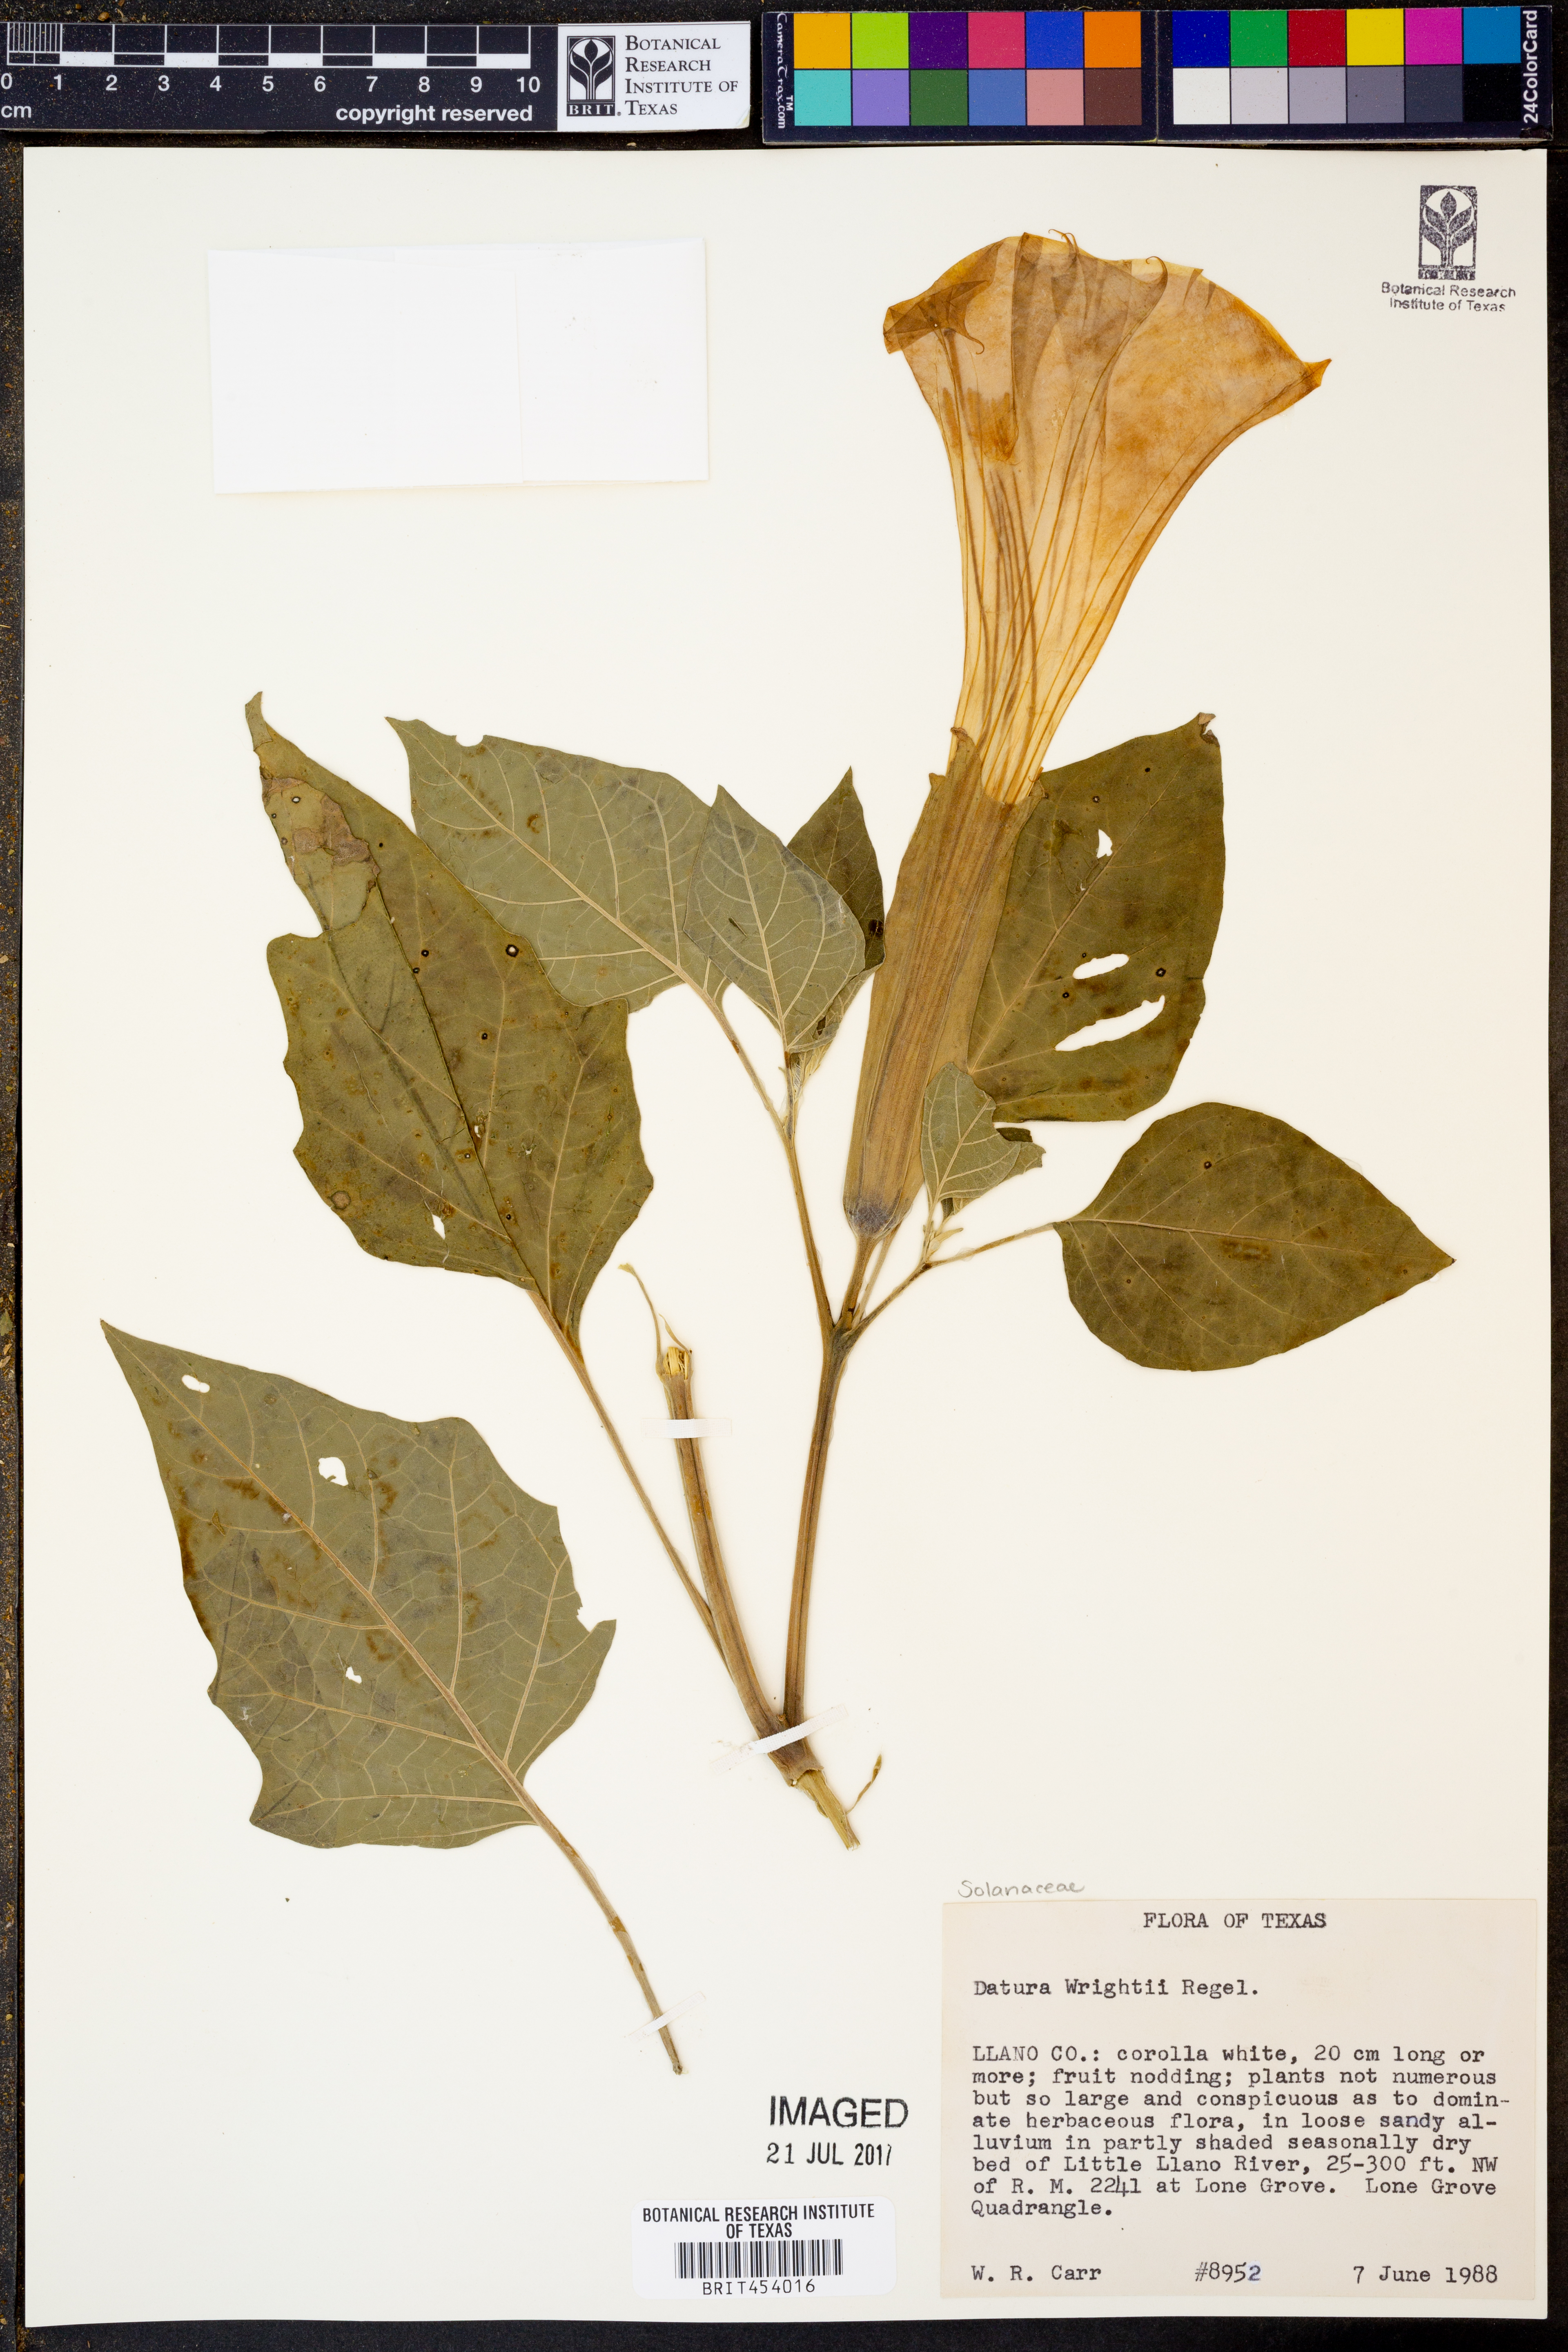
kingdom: Plantae
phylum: Tracheophyta
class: Magnoliopsida
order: Solanales
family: Solanaceae
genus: Datura
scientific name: Datura wrightii
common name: Sacred thorn-apple
